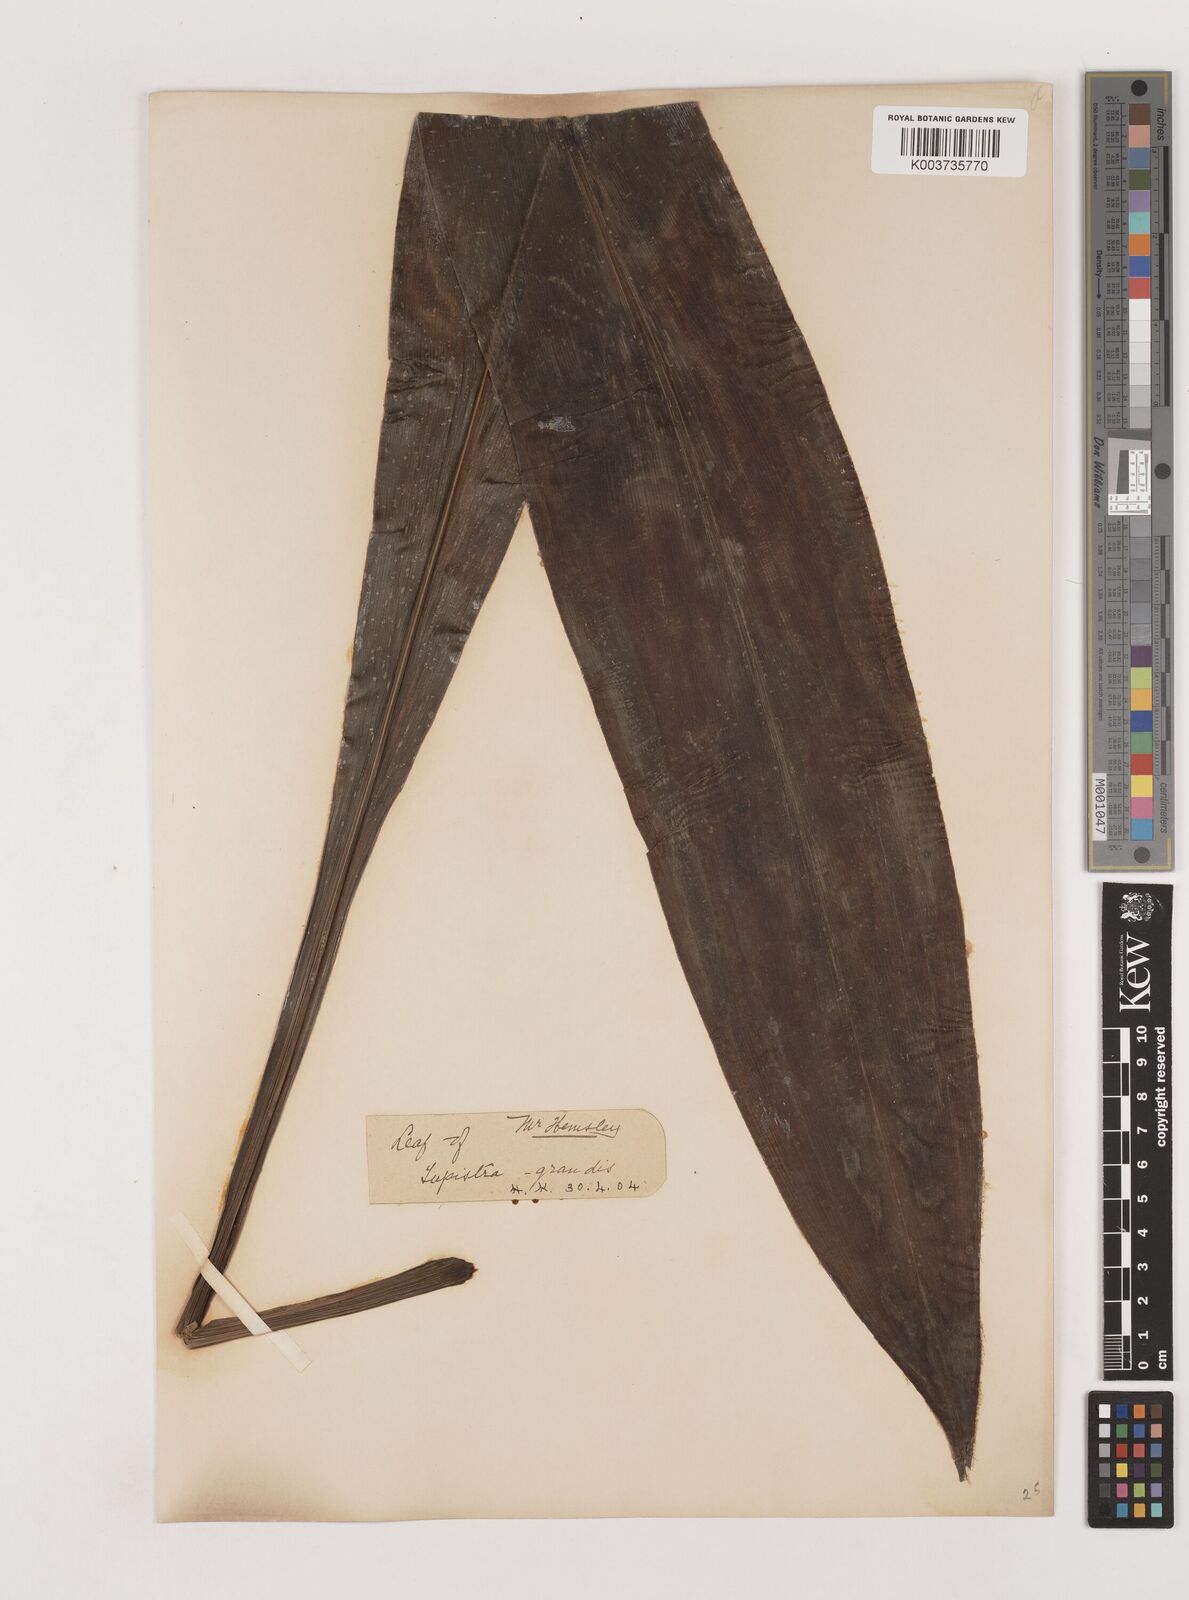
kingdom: Plantae
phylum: Tracheophyta
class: Liliopsida
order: Asparagales
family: Asparagaceae
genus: Tupistra
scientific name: Tupistra grandis
